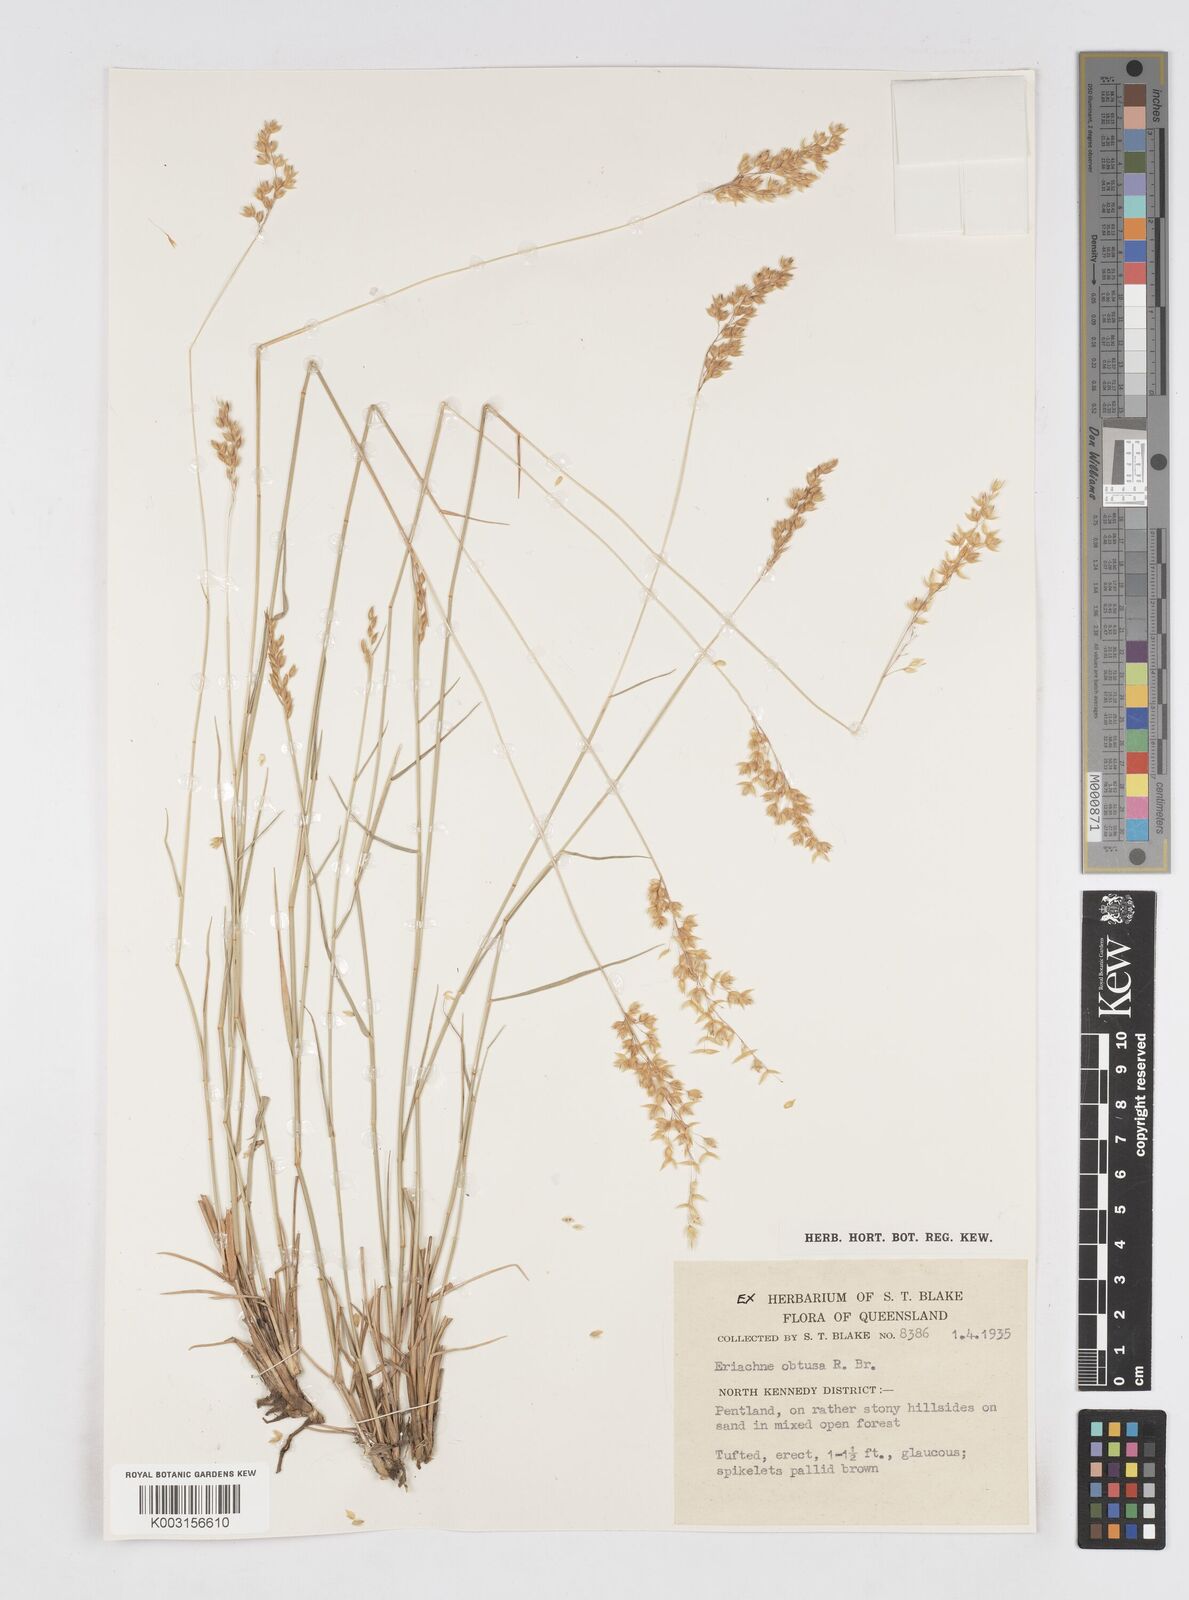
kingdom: Plantae
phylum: Tracheophyta
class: Liliopsida
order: Poales
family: Poaceae
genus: Eriachne
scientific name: Eriachne obtusa
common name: Northern wanderrie grass
